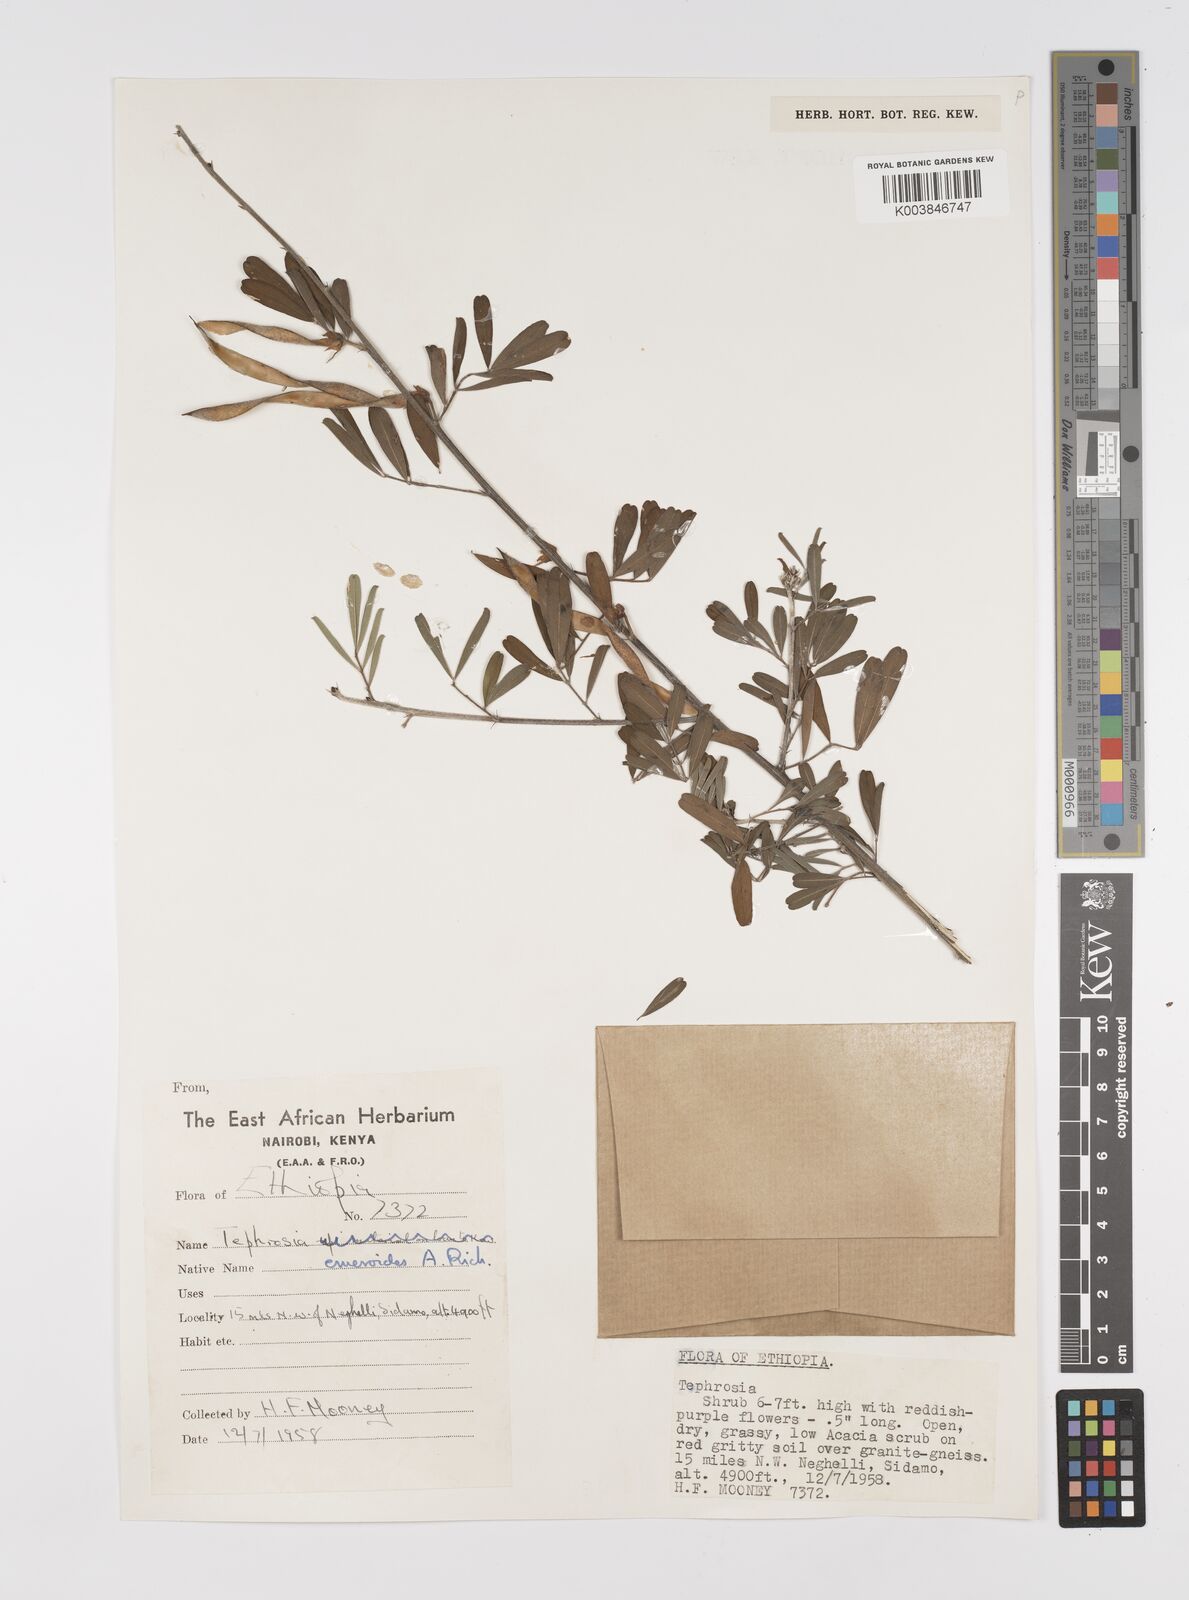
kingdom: Plantae
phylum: Tracheophyta
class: Magnoliopsida
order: Fabales
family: Fabaceae
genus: Tephrosia
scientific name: Tephrosia emeroides
